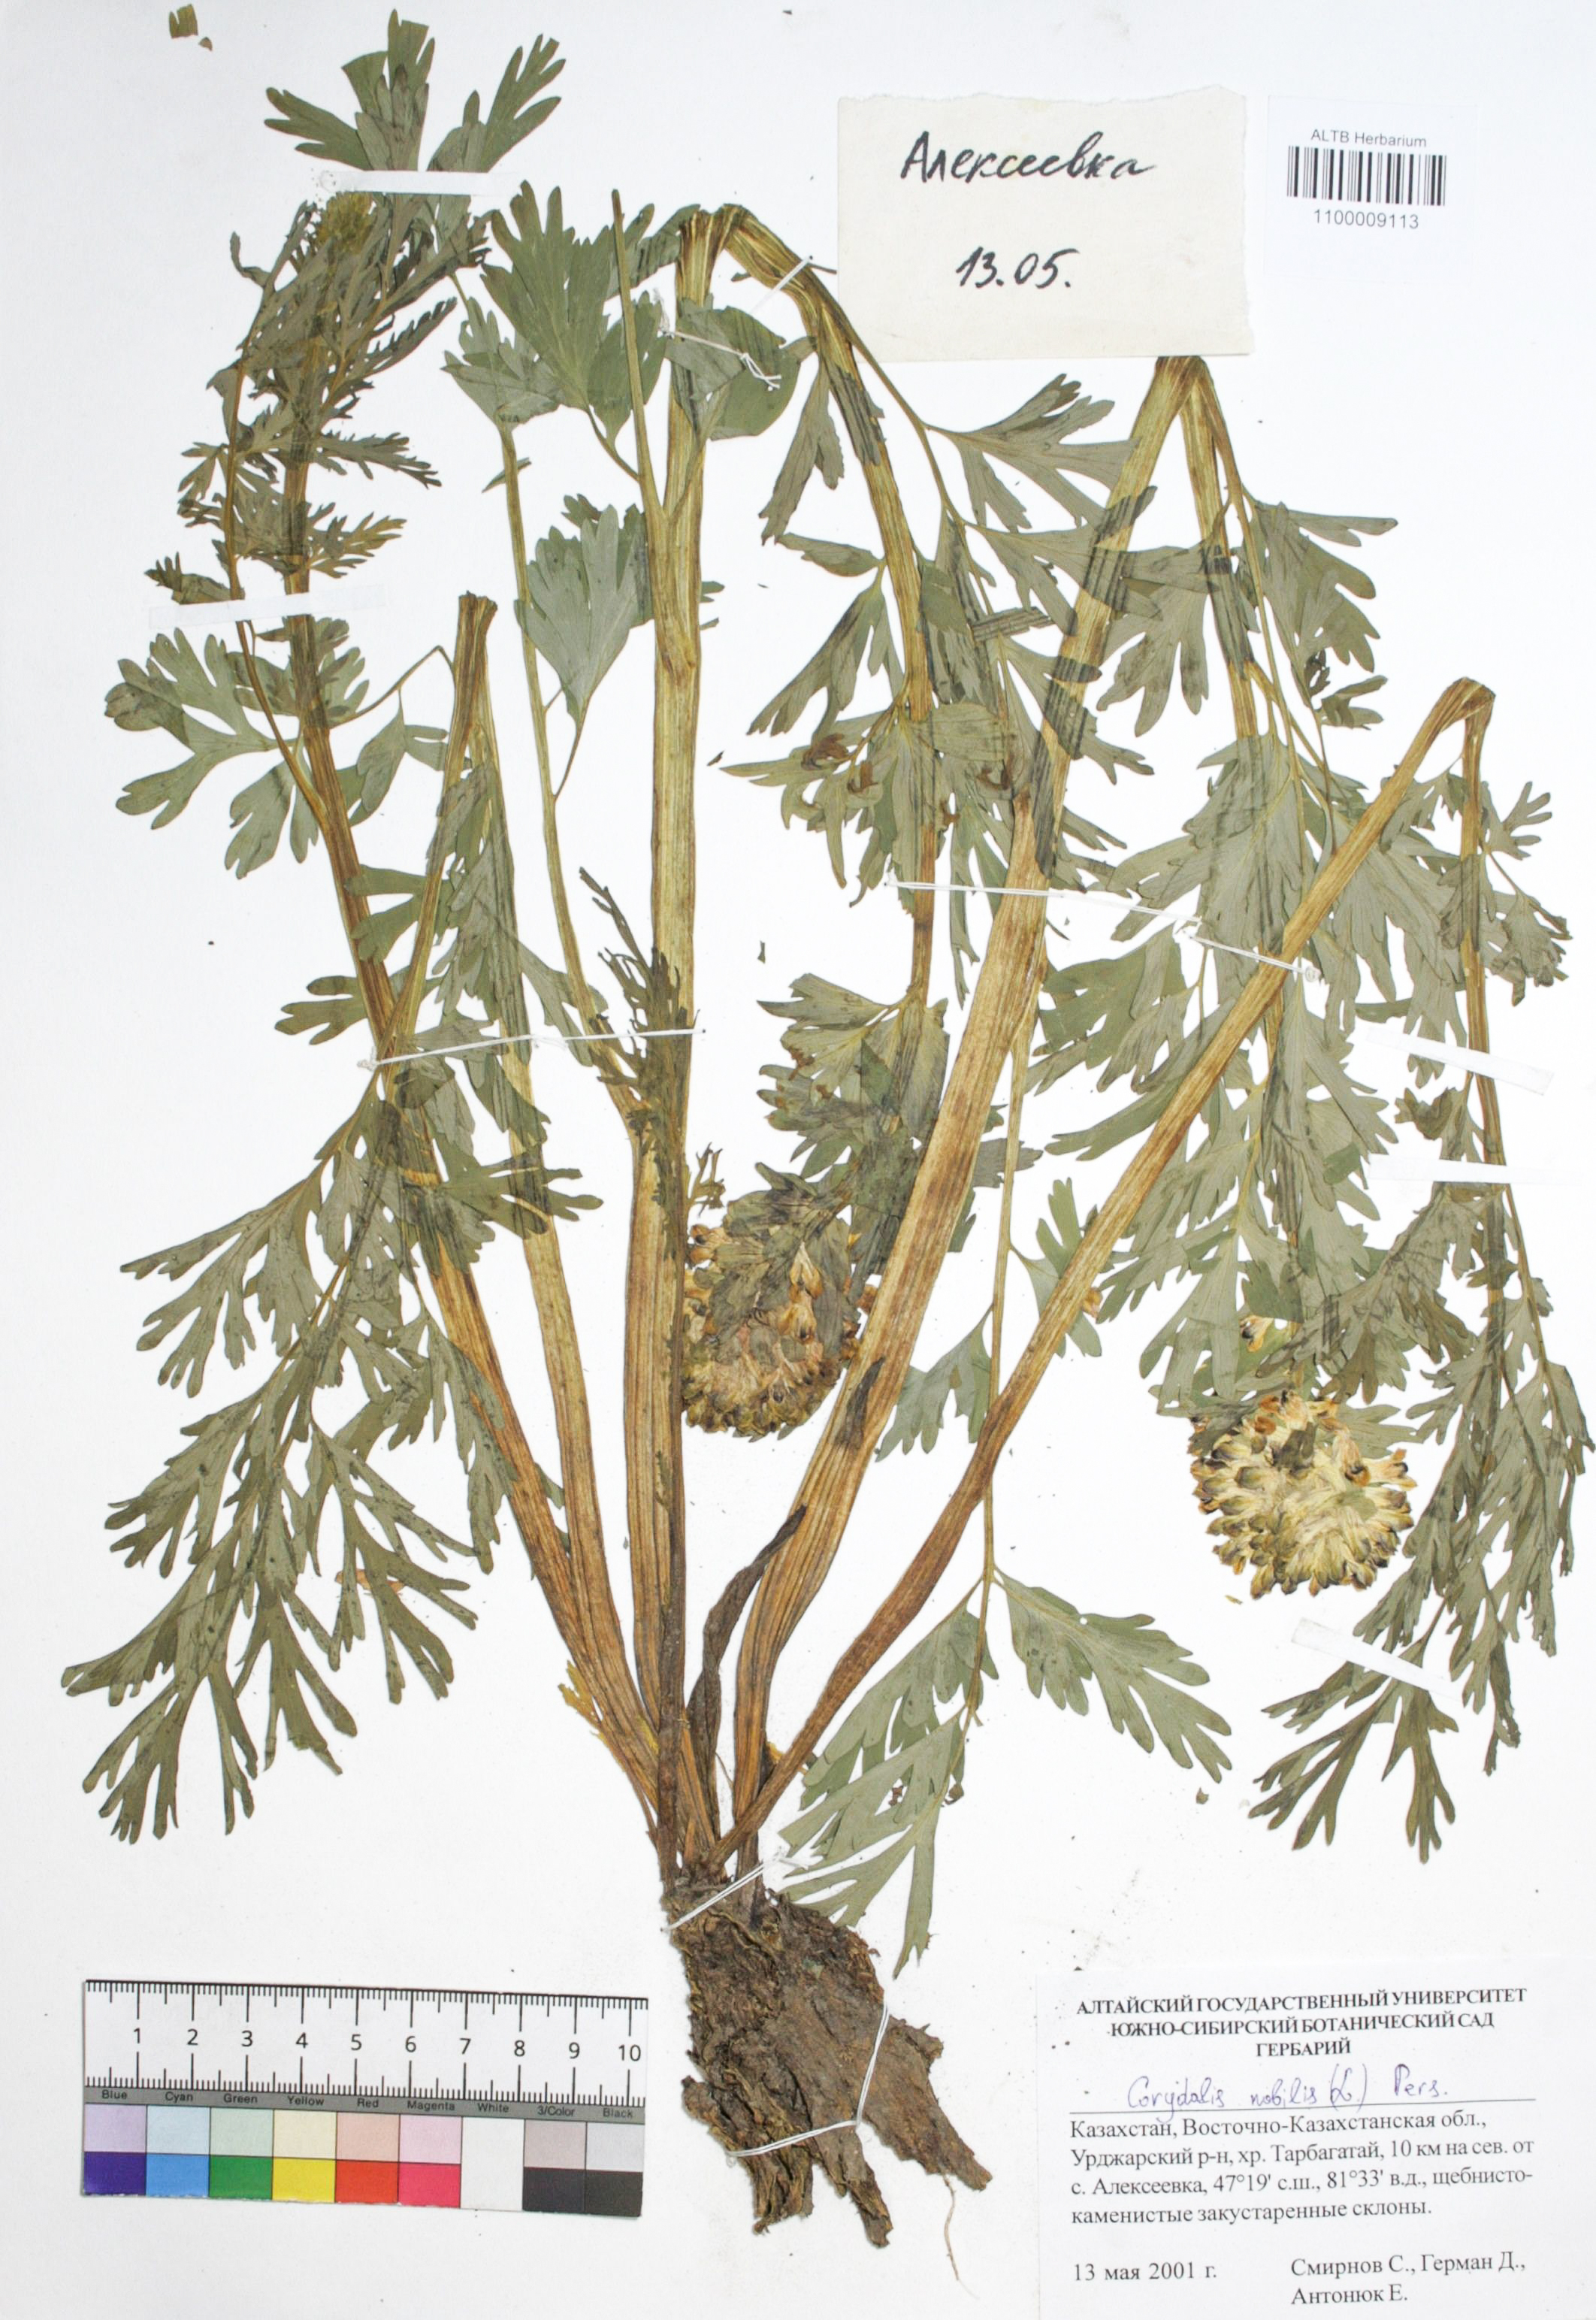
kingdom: Plantae
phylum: Tracheophyta
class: Magnoliopsida
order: Ranunculales
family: Papaveraceae
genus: Corydalis
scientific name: Corydalis nobilis
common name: Siberian corydalis
